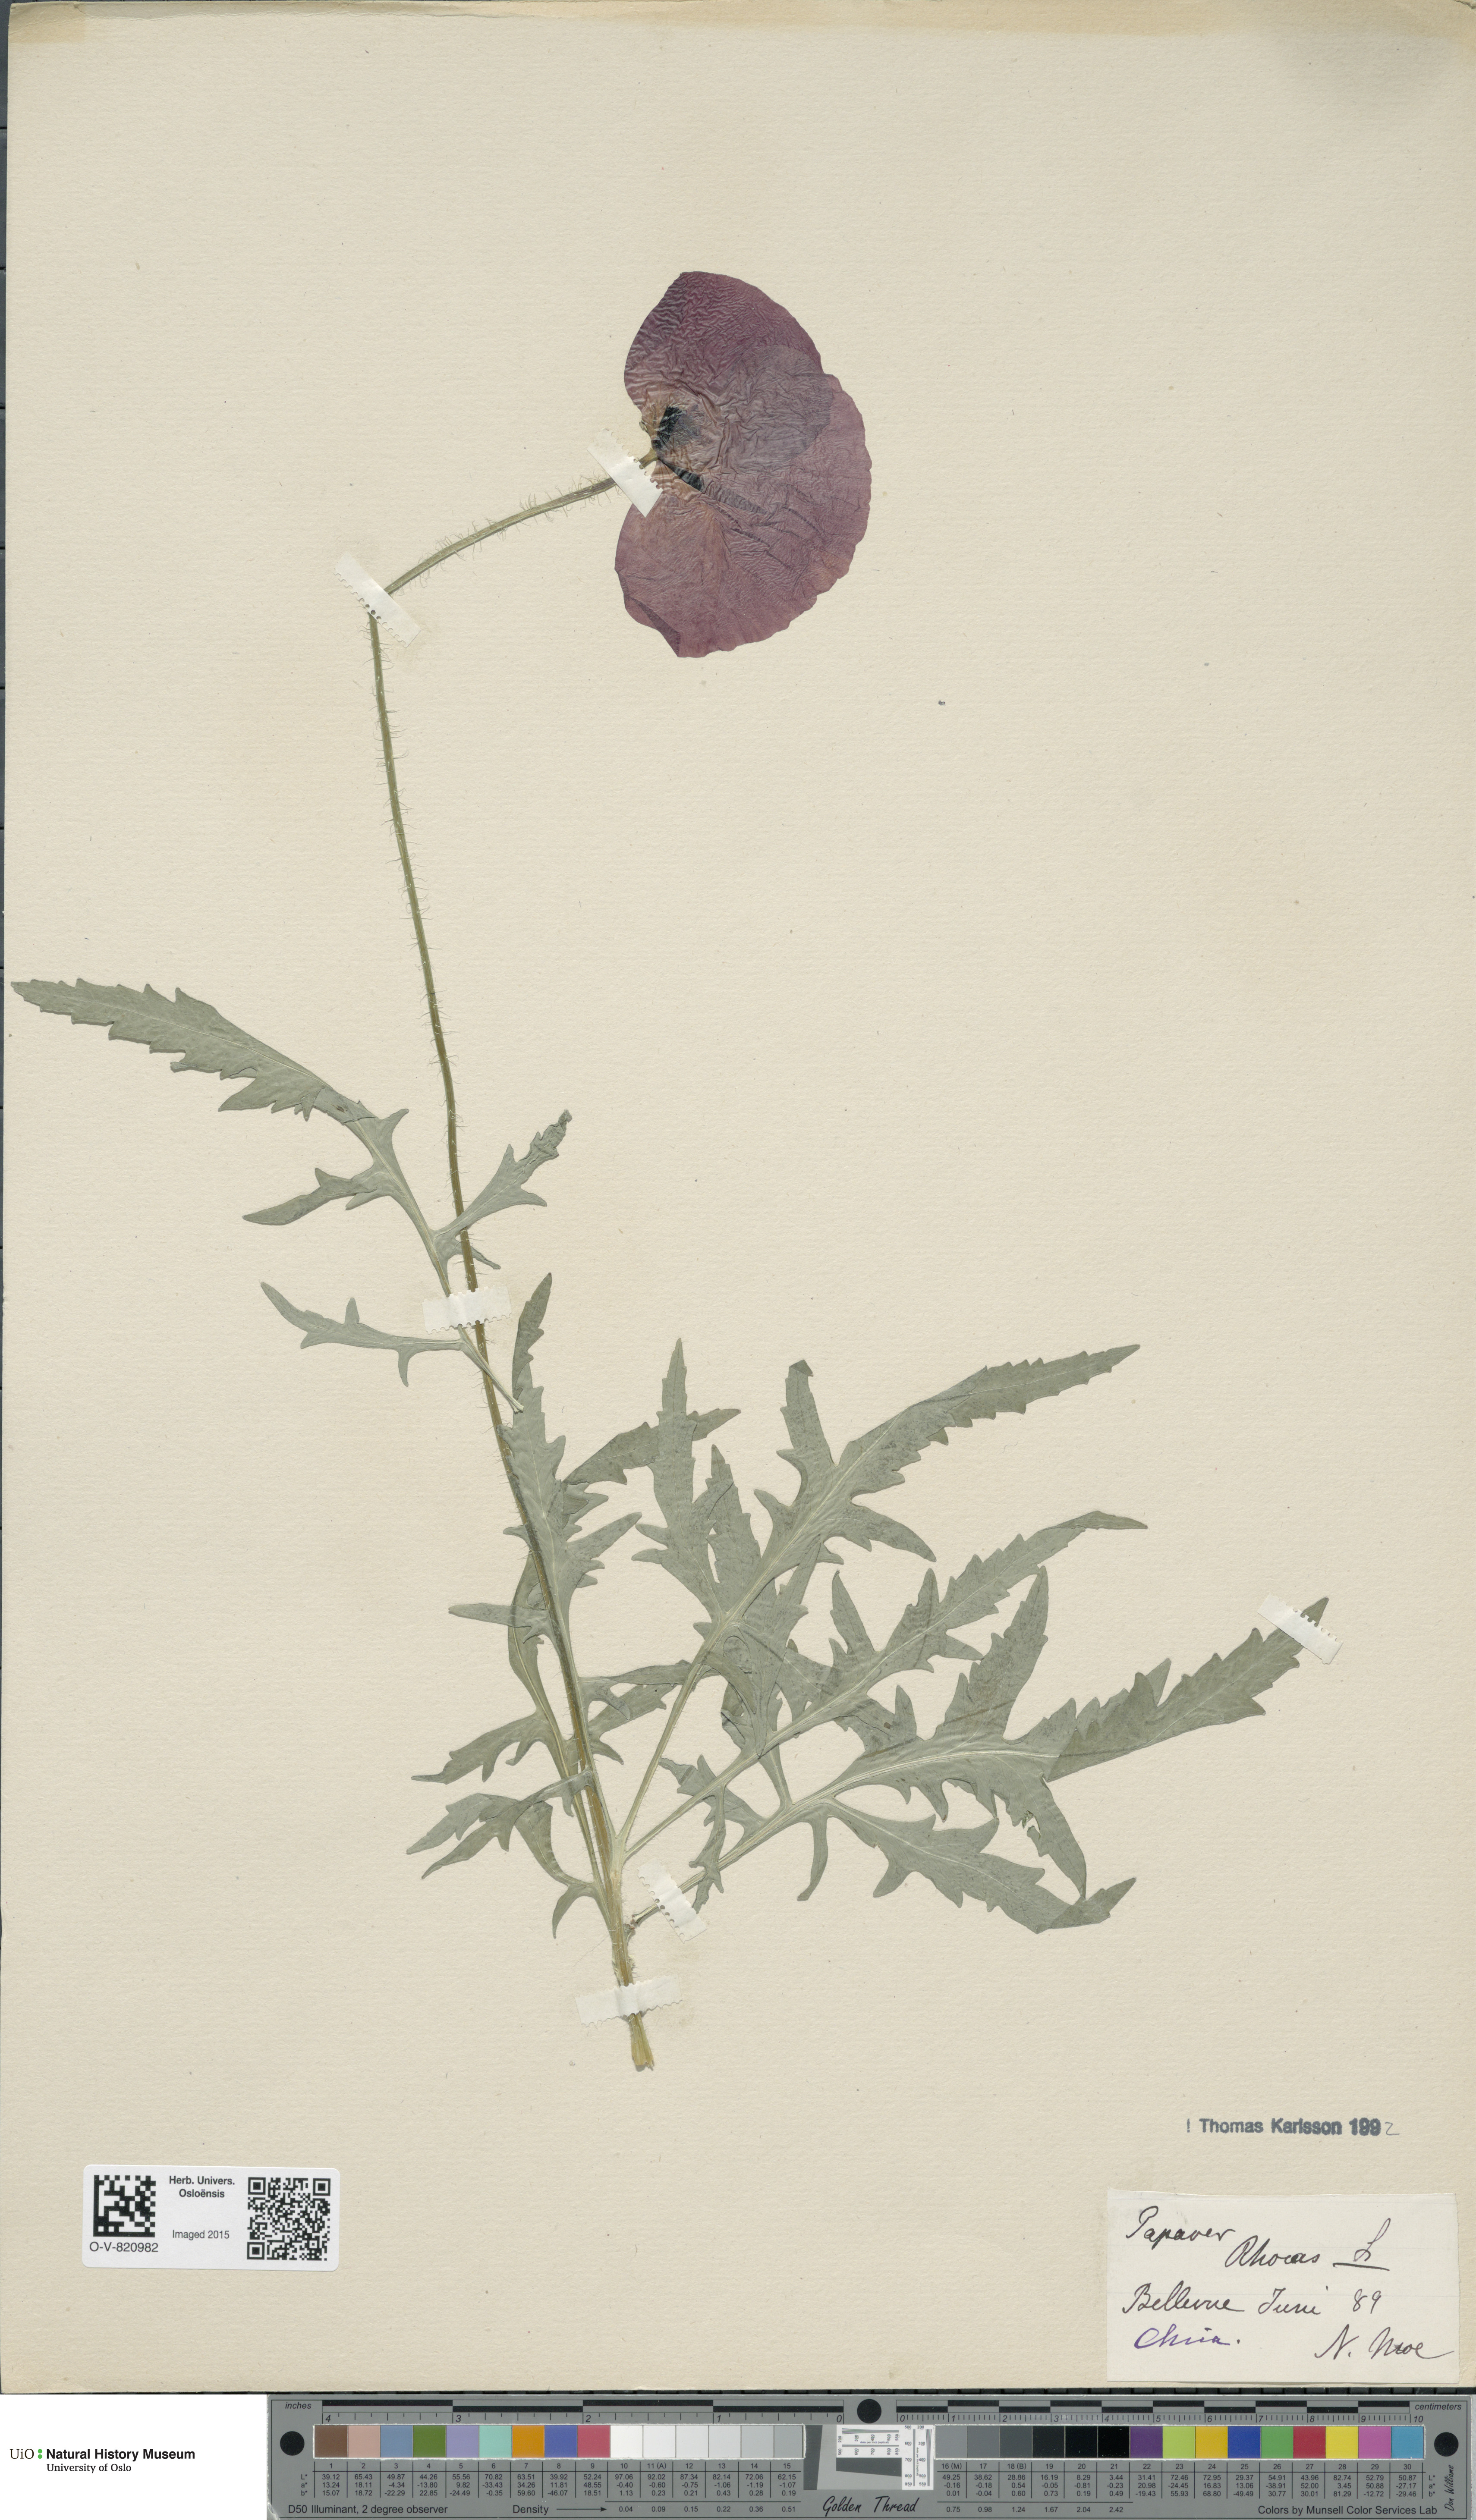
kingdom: Plantae
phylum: Tracheophyta
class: Magnoliopsida
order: Ranunculales
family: Papaveraceae
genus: Papaver
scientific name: Papaver rhoeas
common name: Corn poppy
